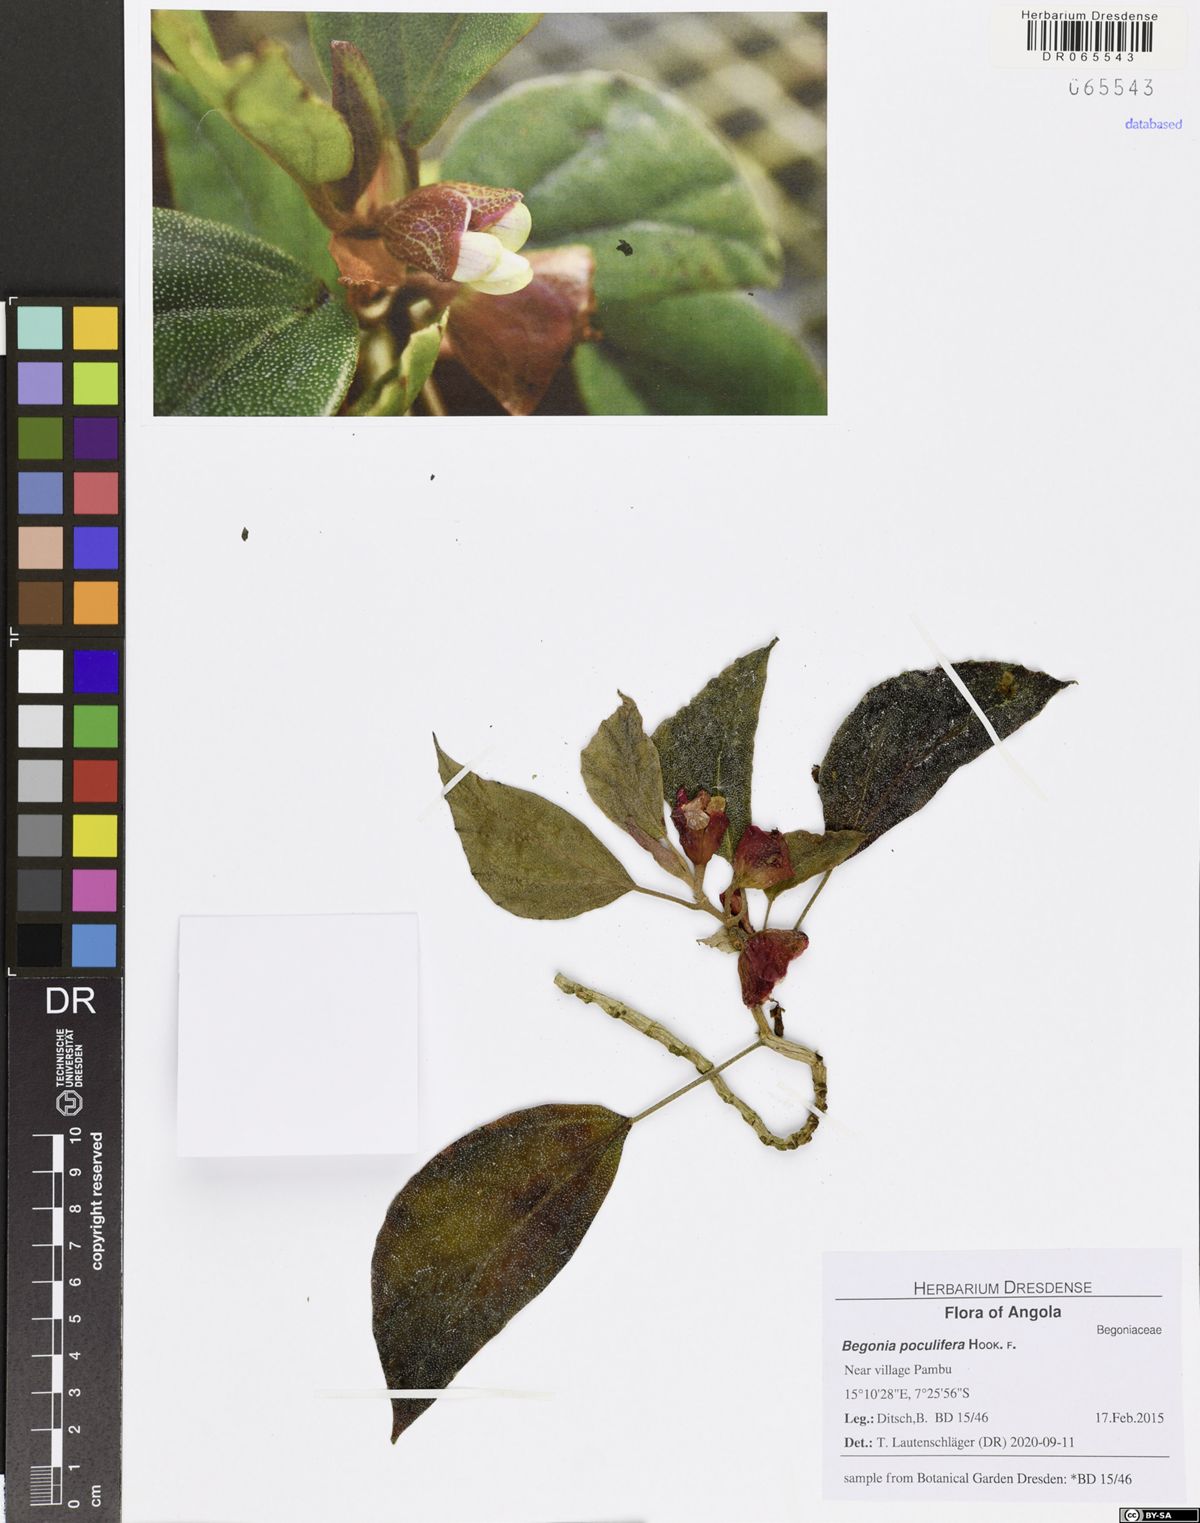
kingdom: Plantae
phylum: Tracheophyta
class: Magnoliopsida
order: Cucurbitales
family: Begoniaceae
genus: Begonia
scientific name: Begonia poculifera
